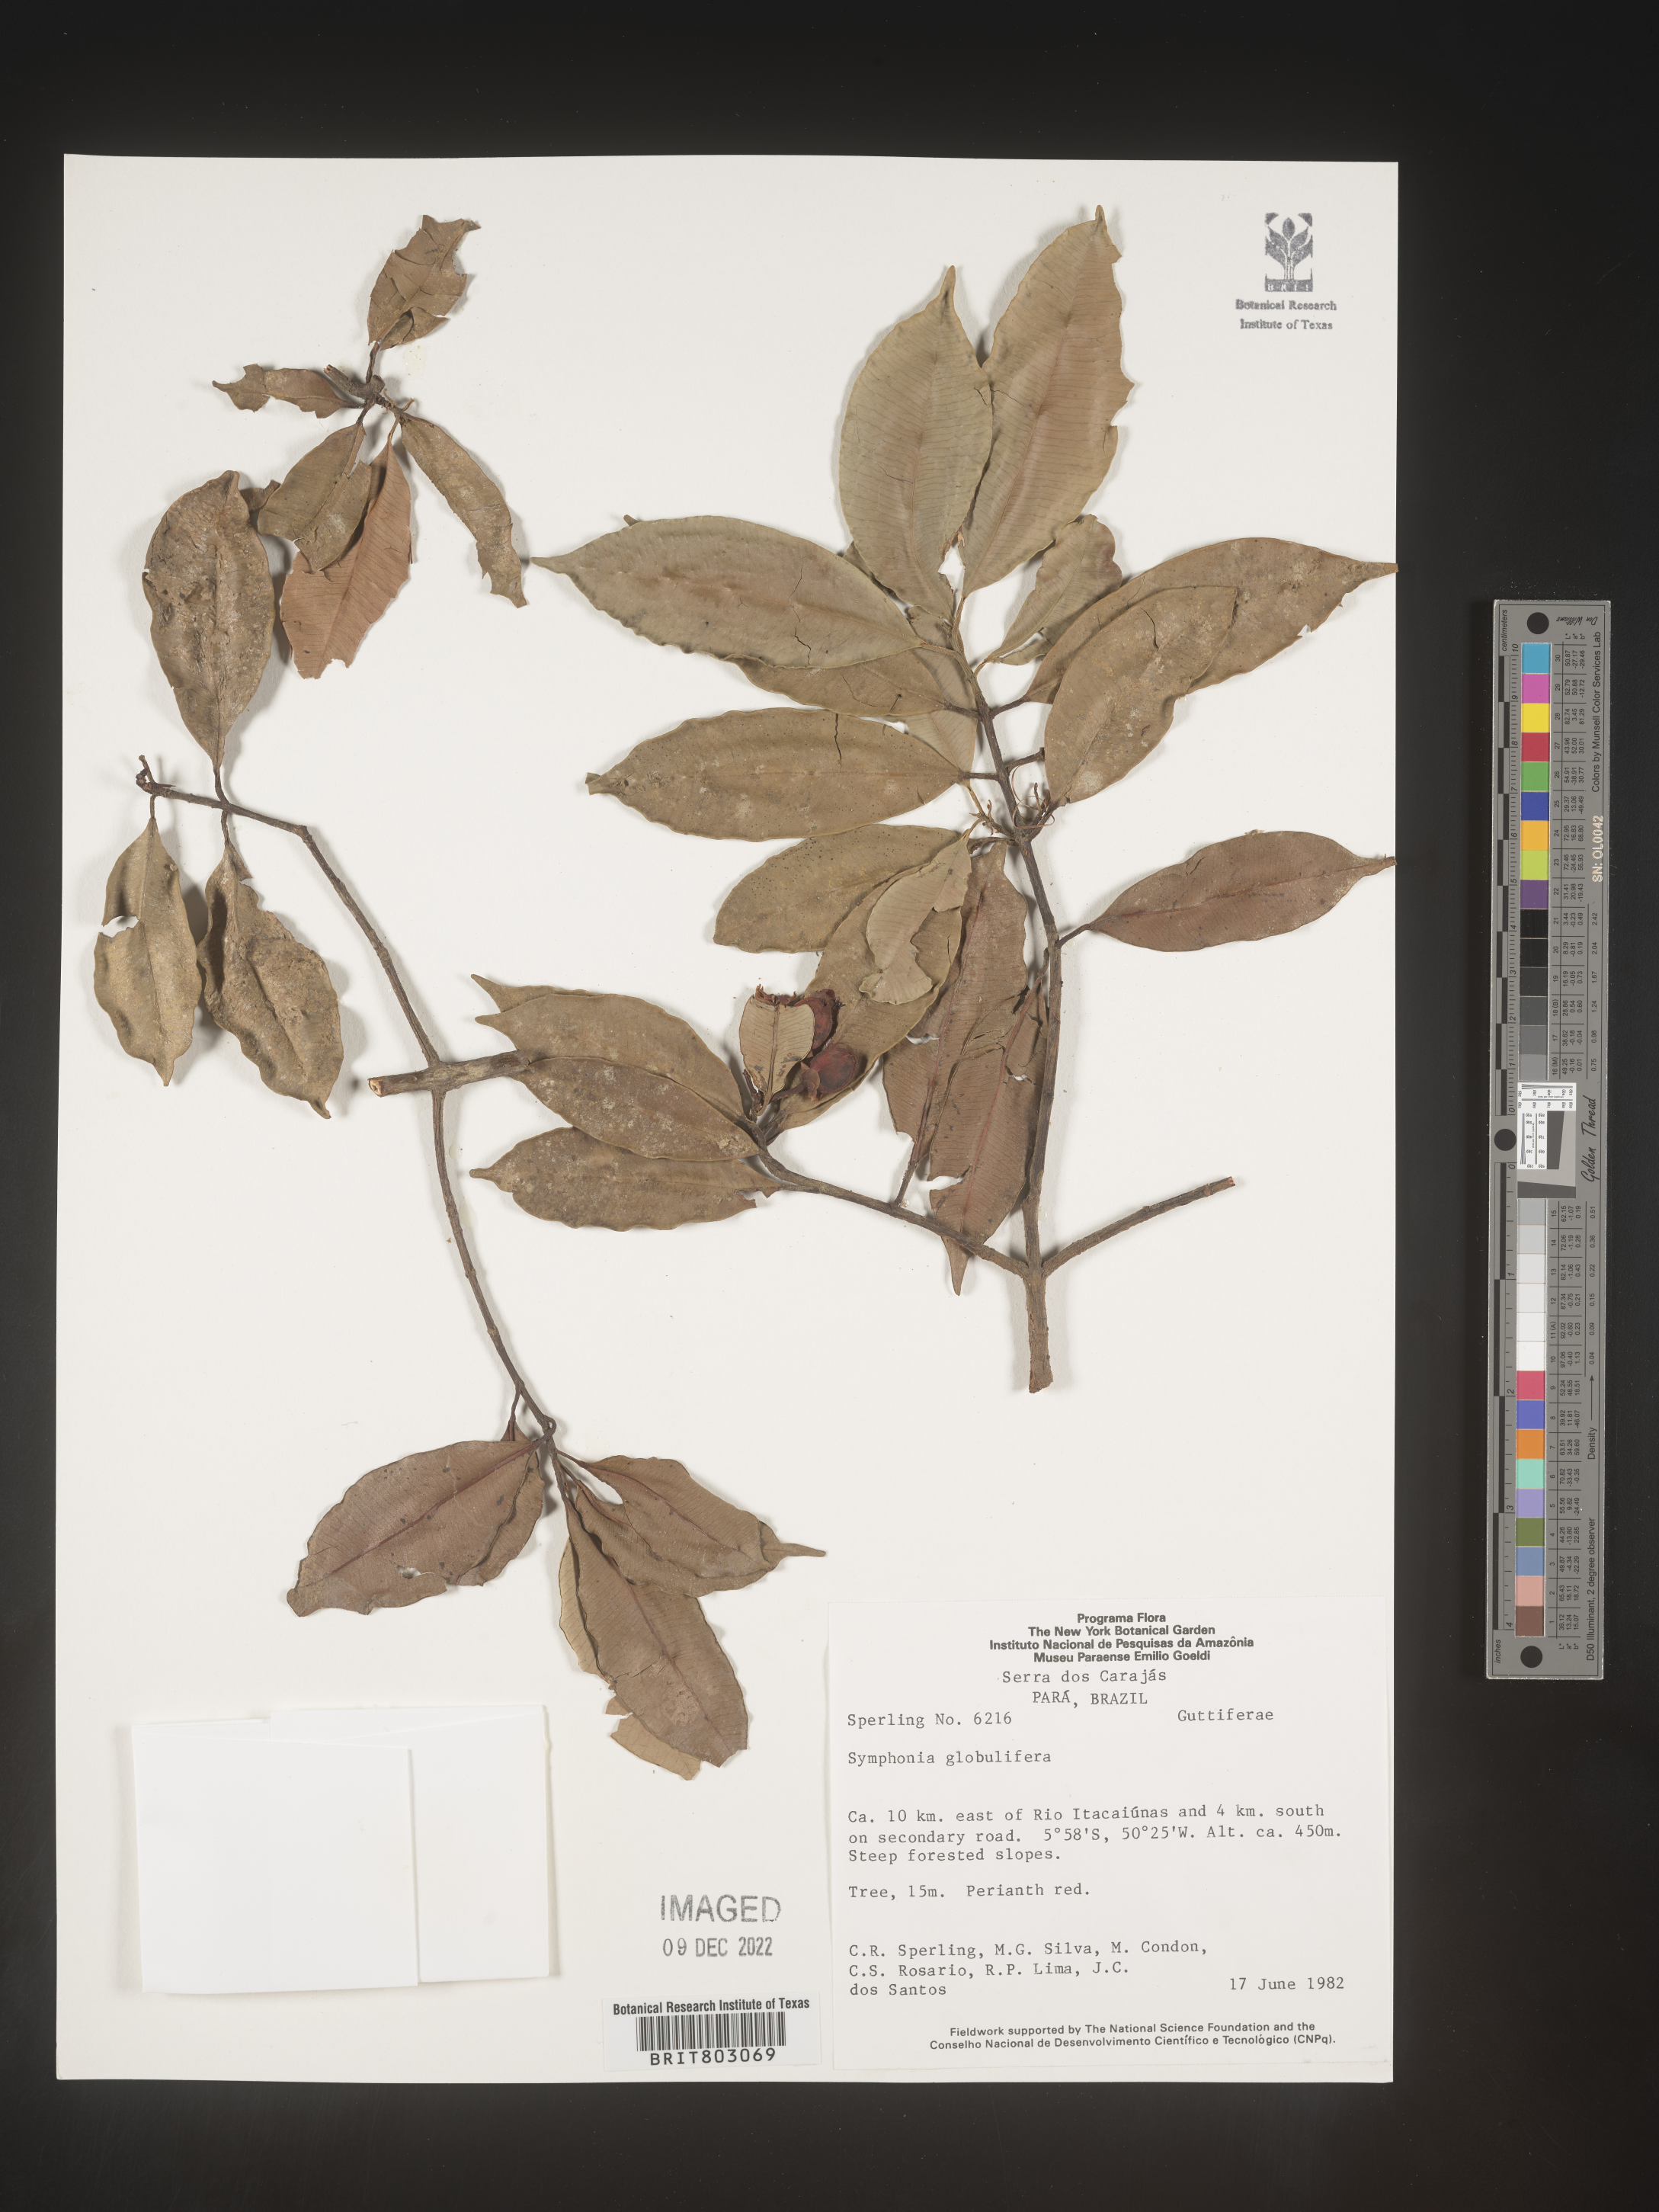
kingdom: Plantae
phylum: Tracheophyta
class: Magnoliopsida
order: Malpighiales
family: Clusiaceae
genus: Symphonia
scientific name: Symphonia
